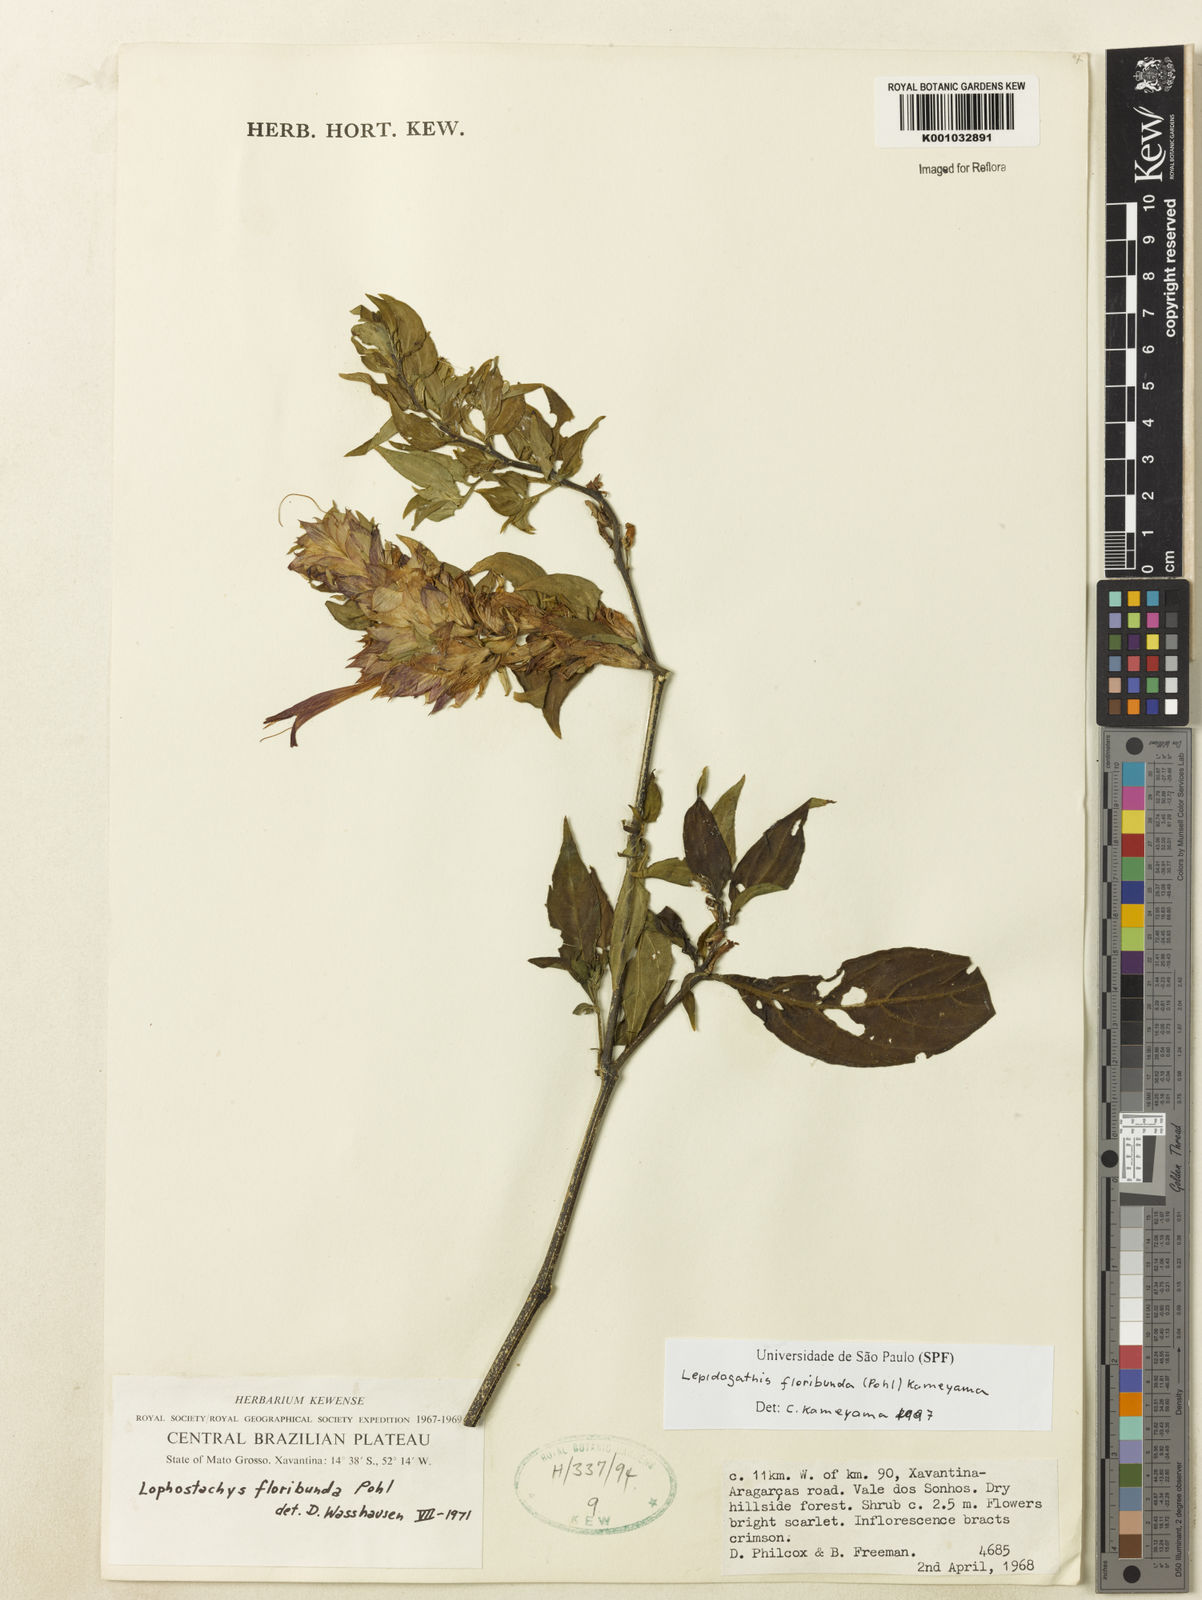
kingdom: Plantae
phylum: Tracheophyta
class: Magnoliopsida
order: Lamiales
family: Acanthaceae
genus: Lepidagathis
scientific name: Lepidagathis floribunda
